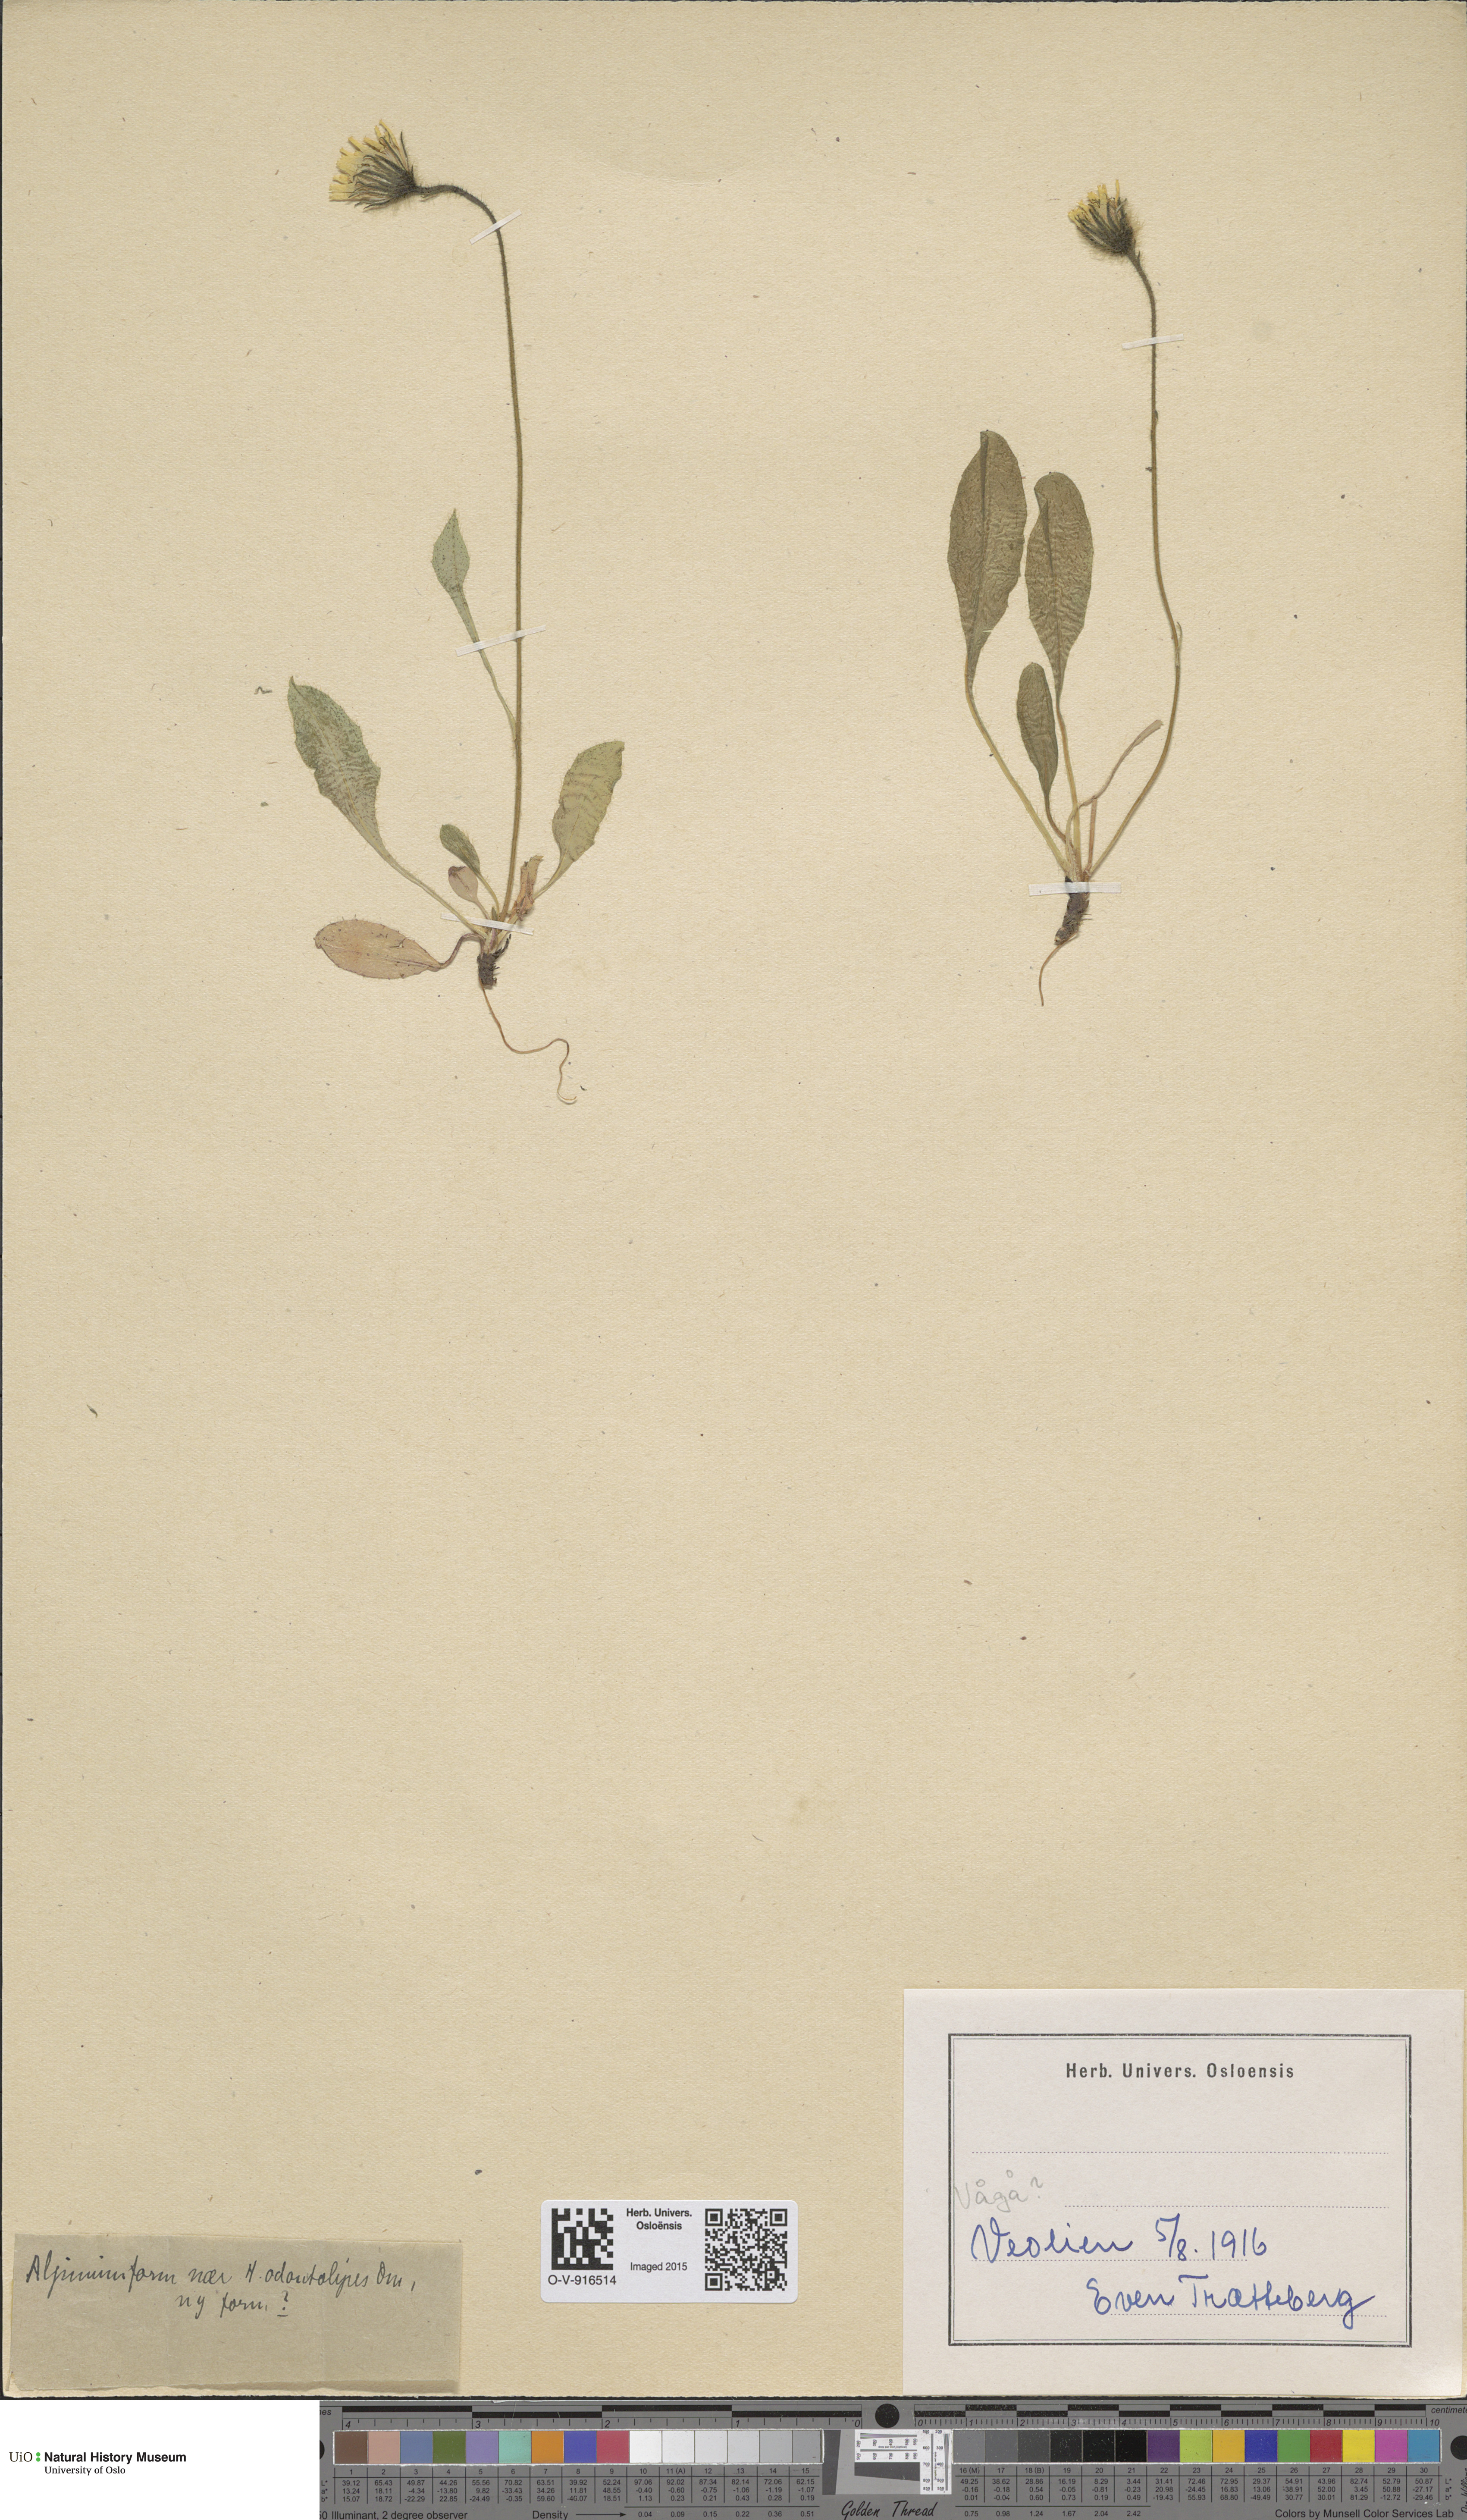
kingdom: Plantae
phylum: Tracheophyta
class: Magnoliopsida
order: Asterales
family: Asteraceae
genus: Hieracium
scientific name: Hieracium alpinum
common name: Alpine hawkweed
